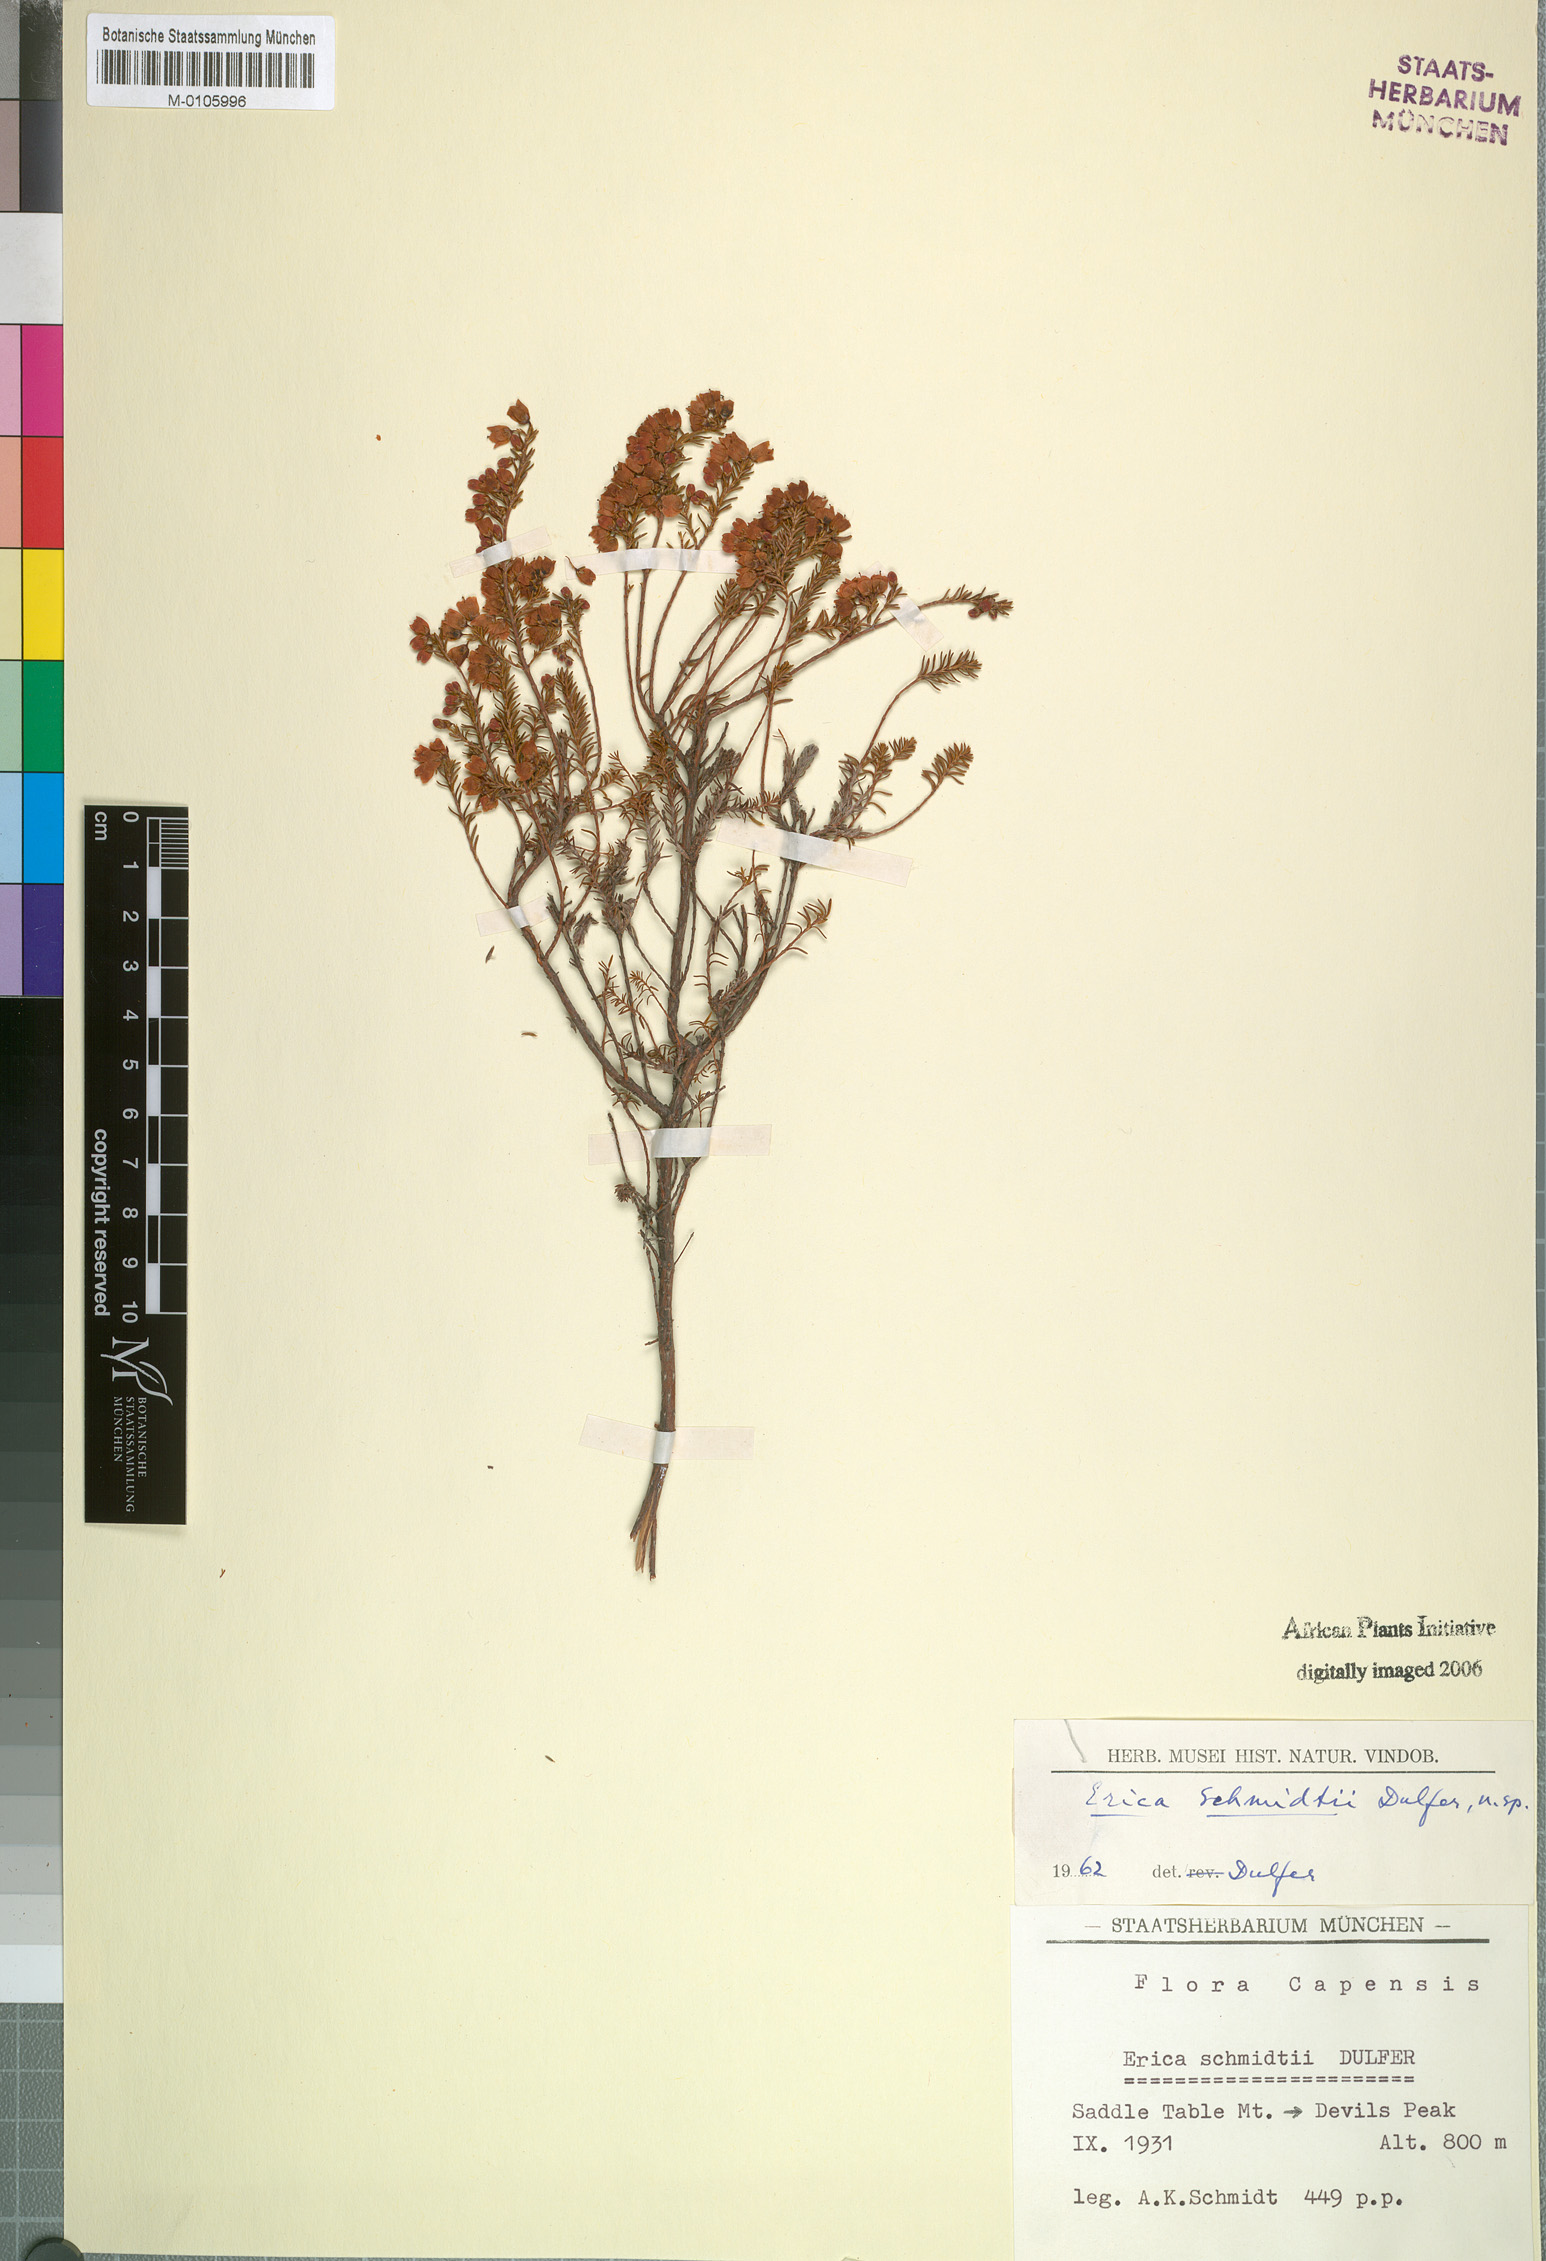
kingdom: Plantae
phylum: Tracheophyta
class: Magnoliopsida
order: Ericales
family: Ericaceae
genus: Erica
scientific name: Erica schmidtii
